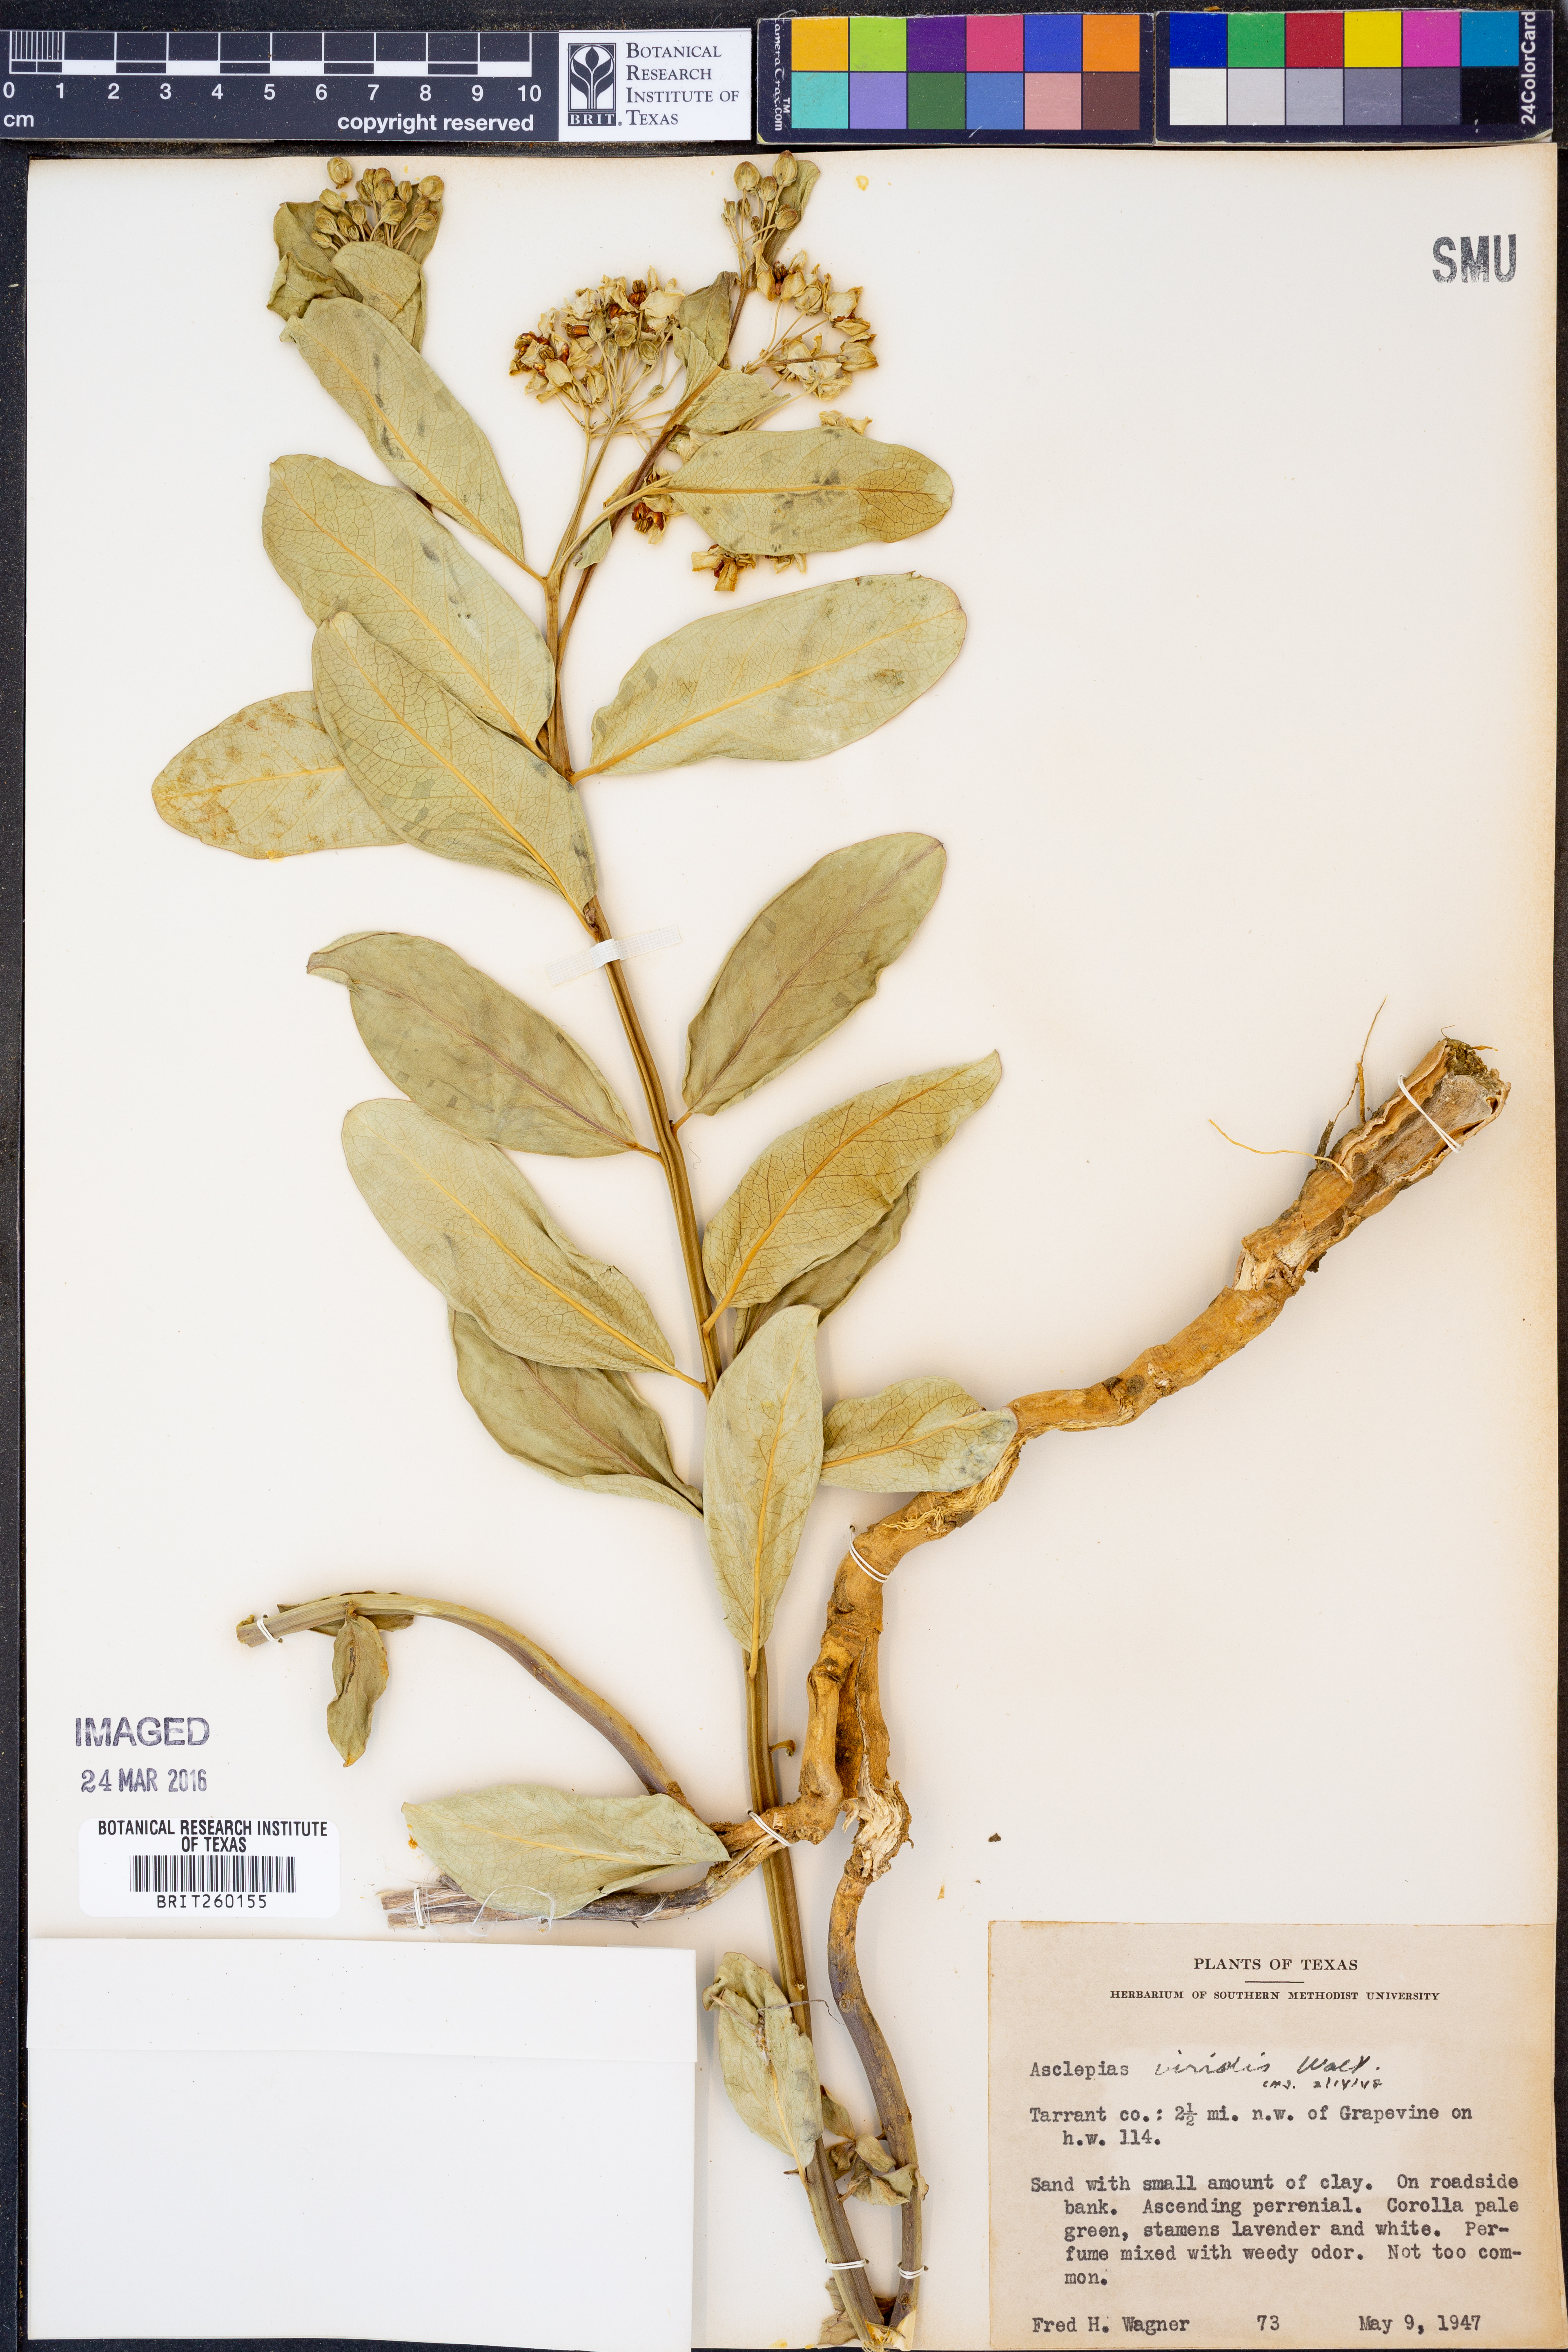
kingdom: Plantae
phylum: Tracheophyta
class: Magnoliopsida
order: Gentianales
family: Apocynaceae
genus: Asclepias
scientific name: Asclepias viridis
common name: Antelope-horns
